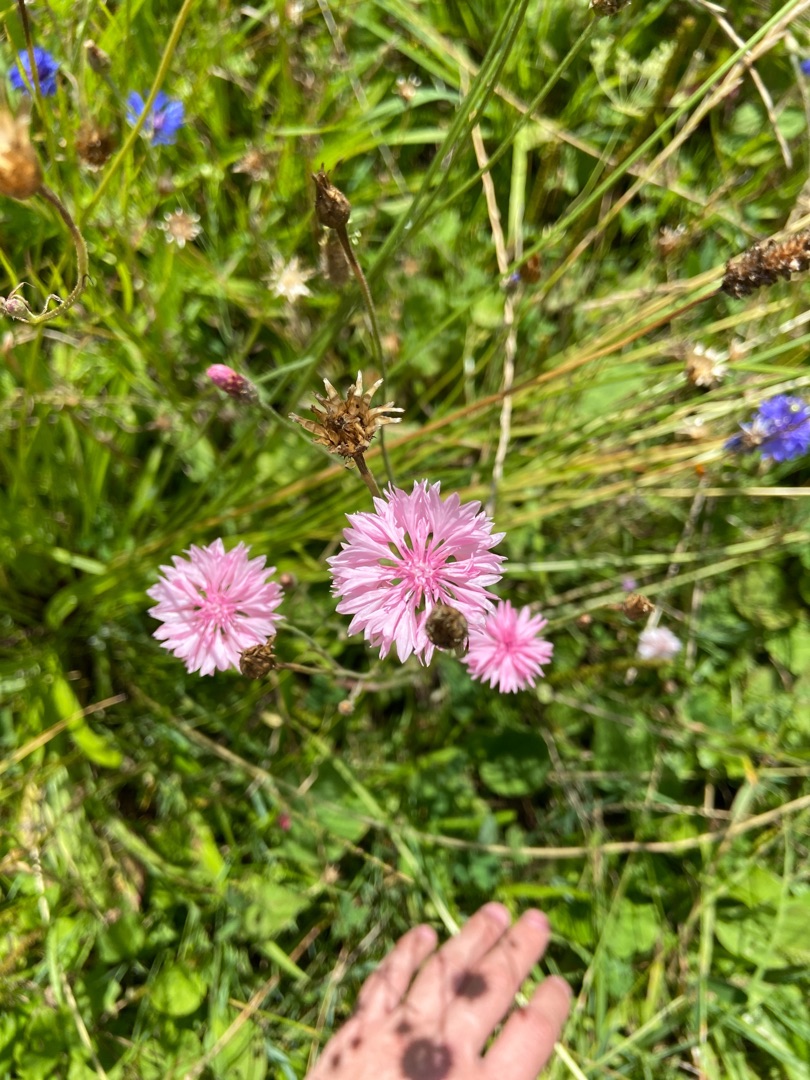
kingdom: Plantae
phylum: Tracheophyta
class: Magnoliopsida
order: Asterales
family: Asteraceae
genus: Centaurea
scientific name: Centaurea cyanus
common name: Kornblomst
